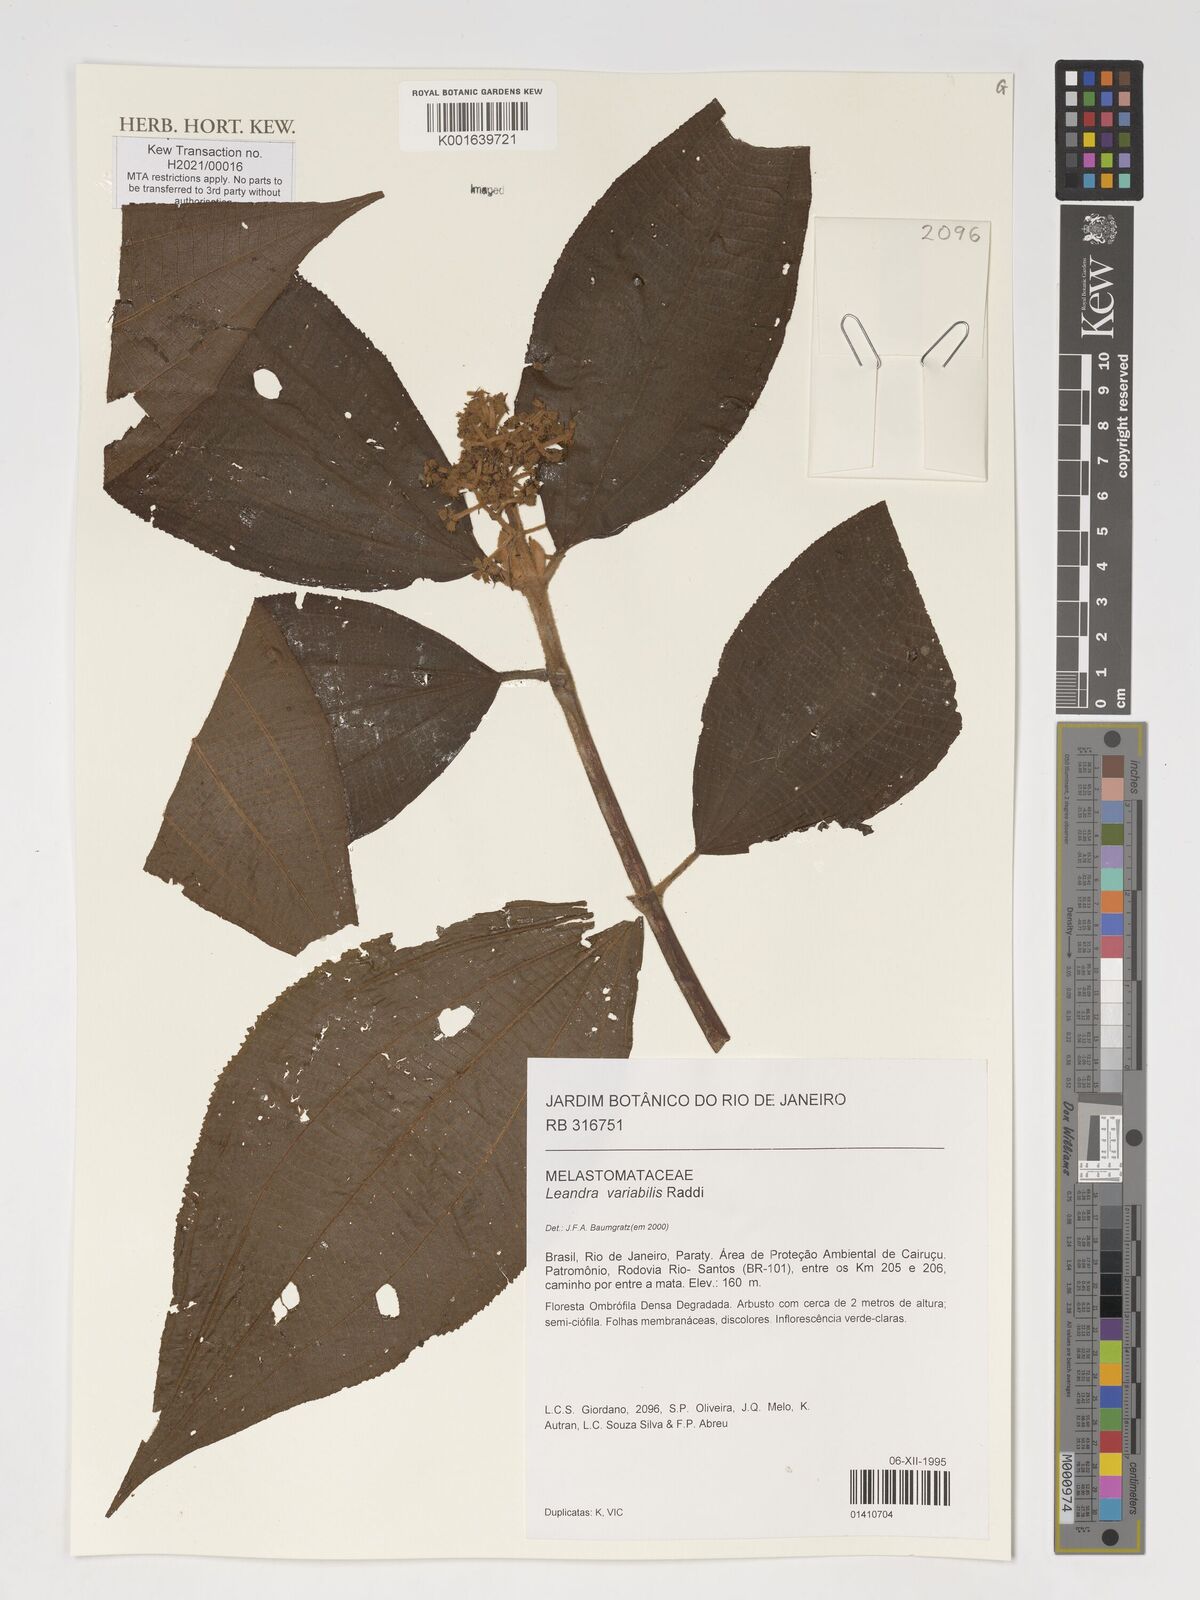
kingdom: Plantae
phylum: Tracheophyta
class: Magnoliopsida
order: Myrtales
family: Melastomataceae
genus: Miconia
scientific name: Miconia dasytricha
